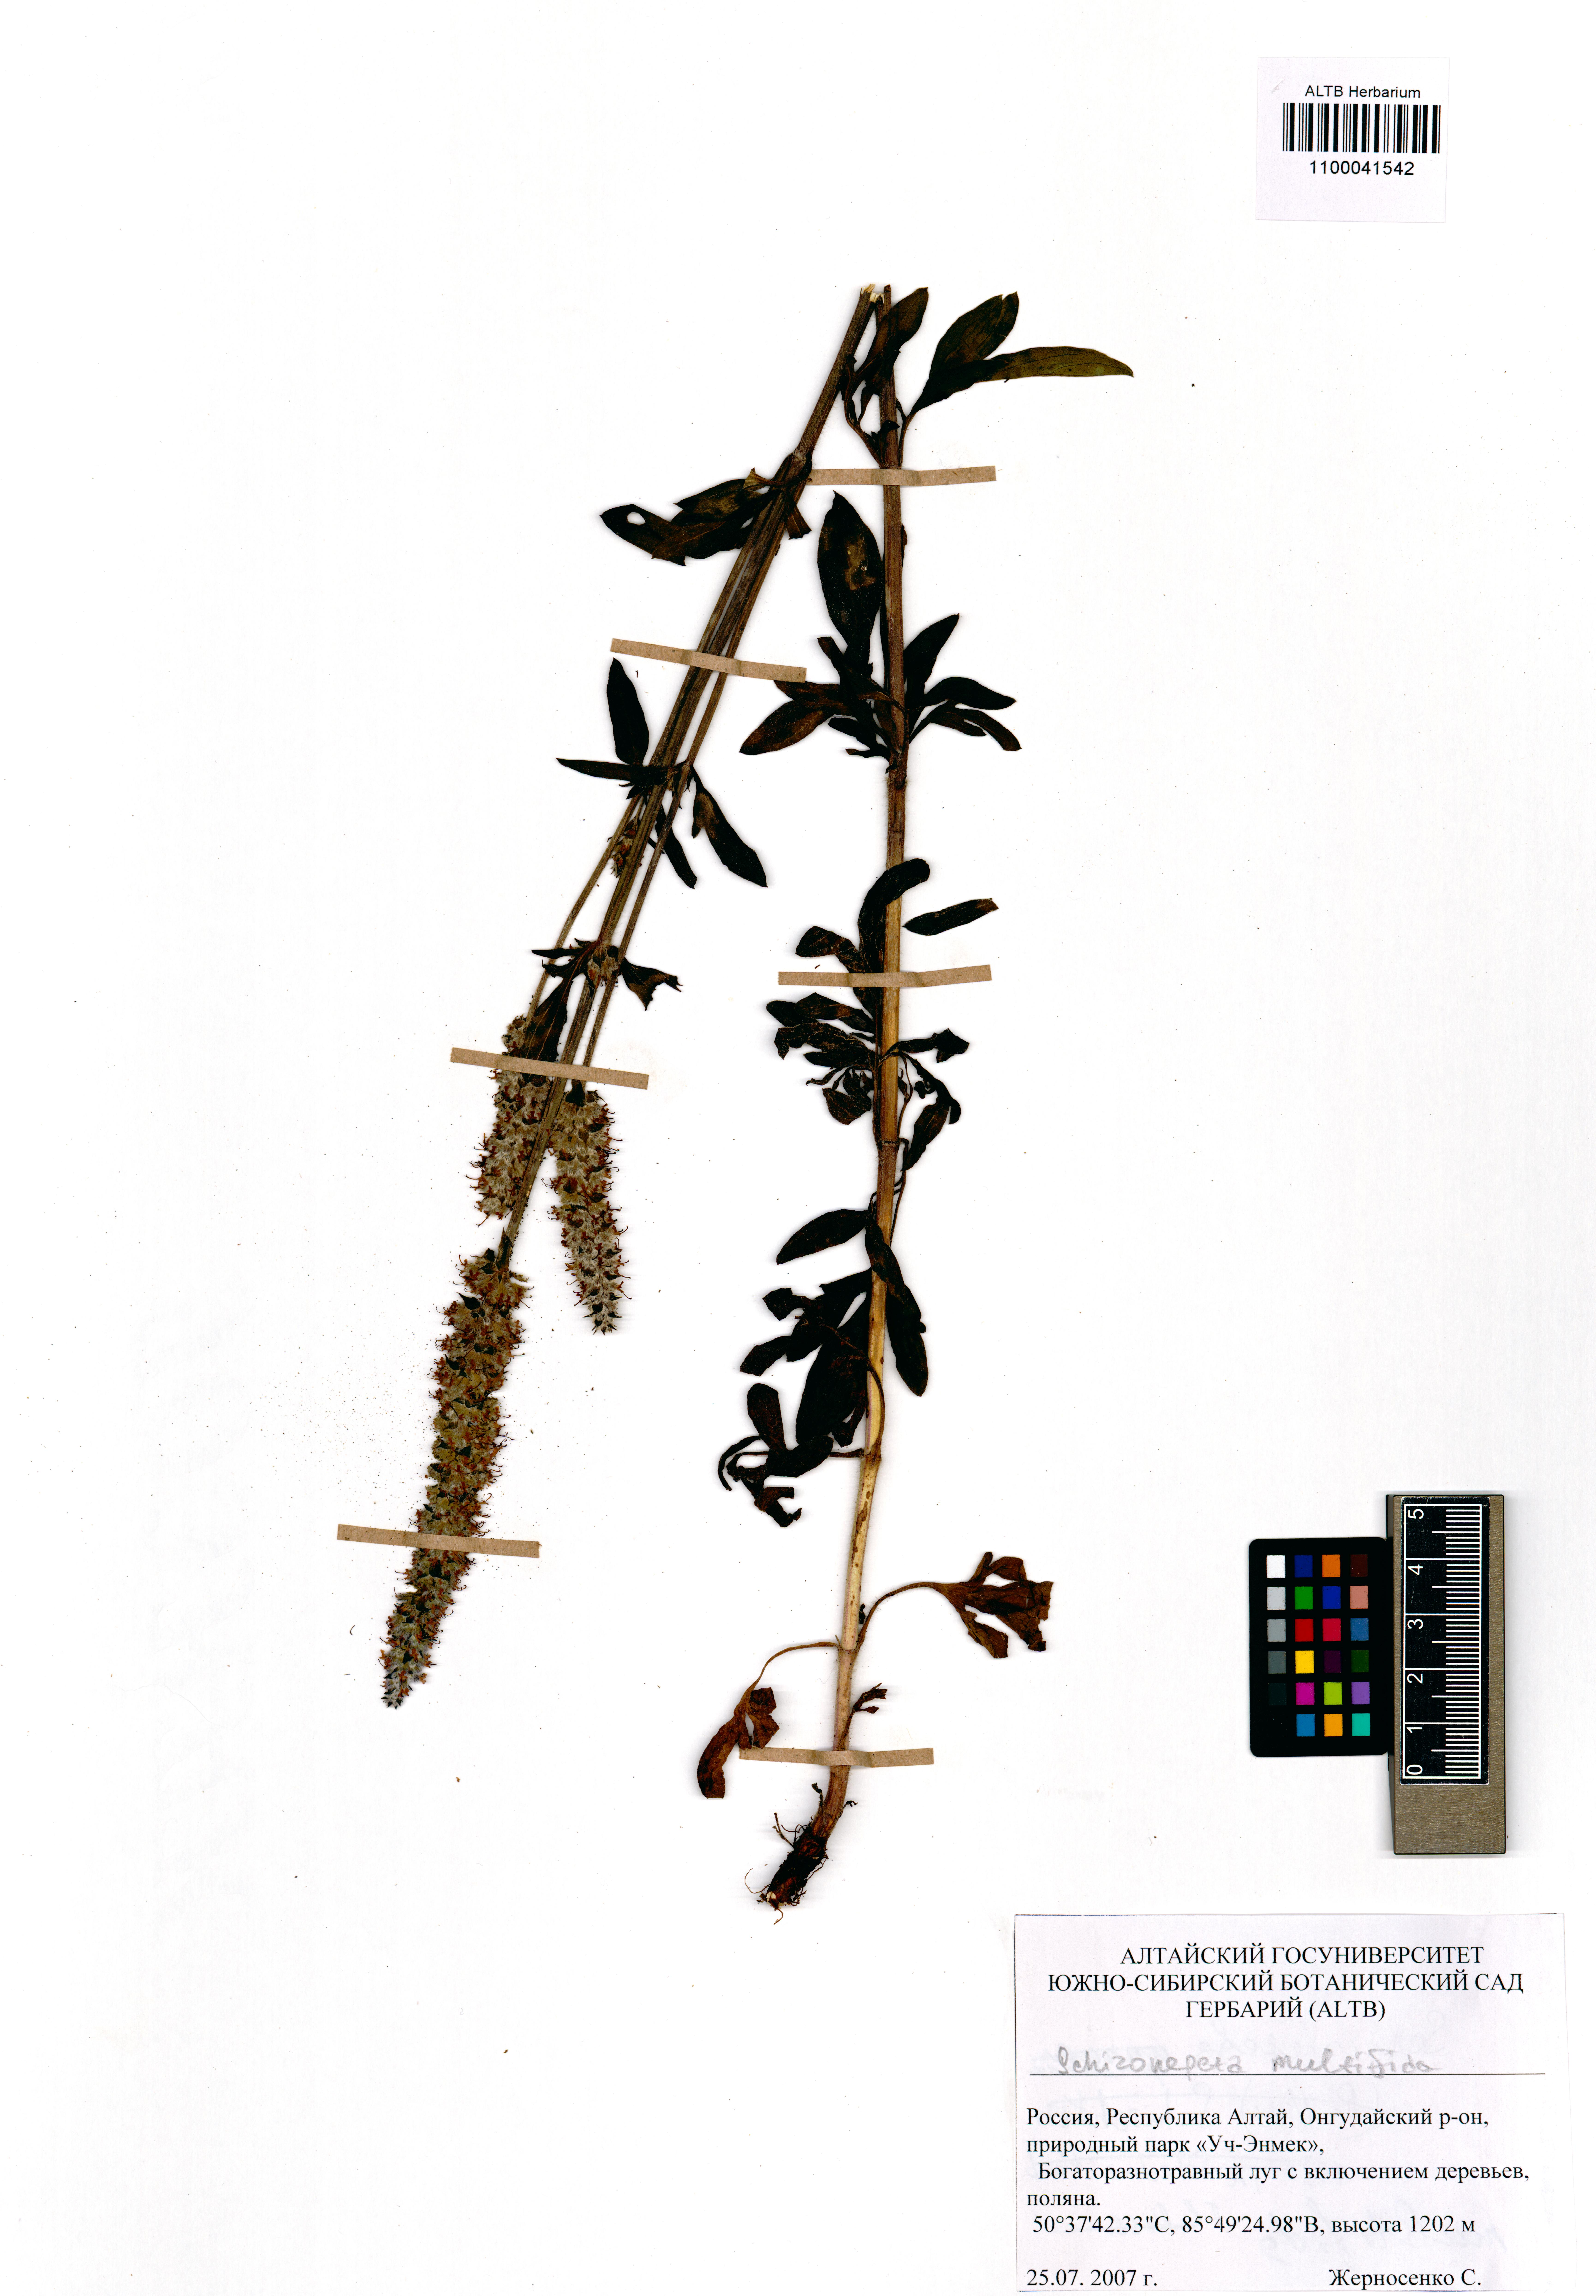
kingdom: Plantae
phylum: Tracheophyta
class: Magnoliopsida
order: Lamiales
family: Lamiaceae
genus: Nepeta
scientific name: Nepeta multifida
